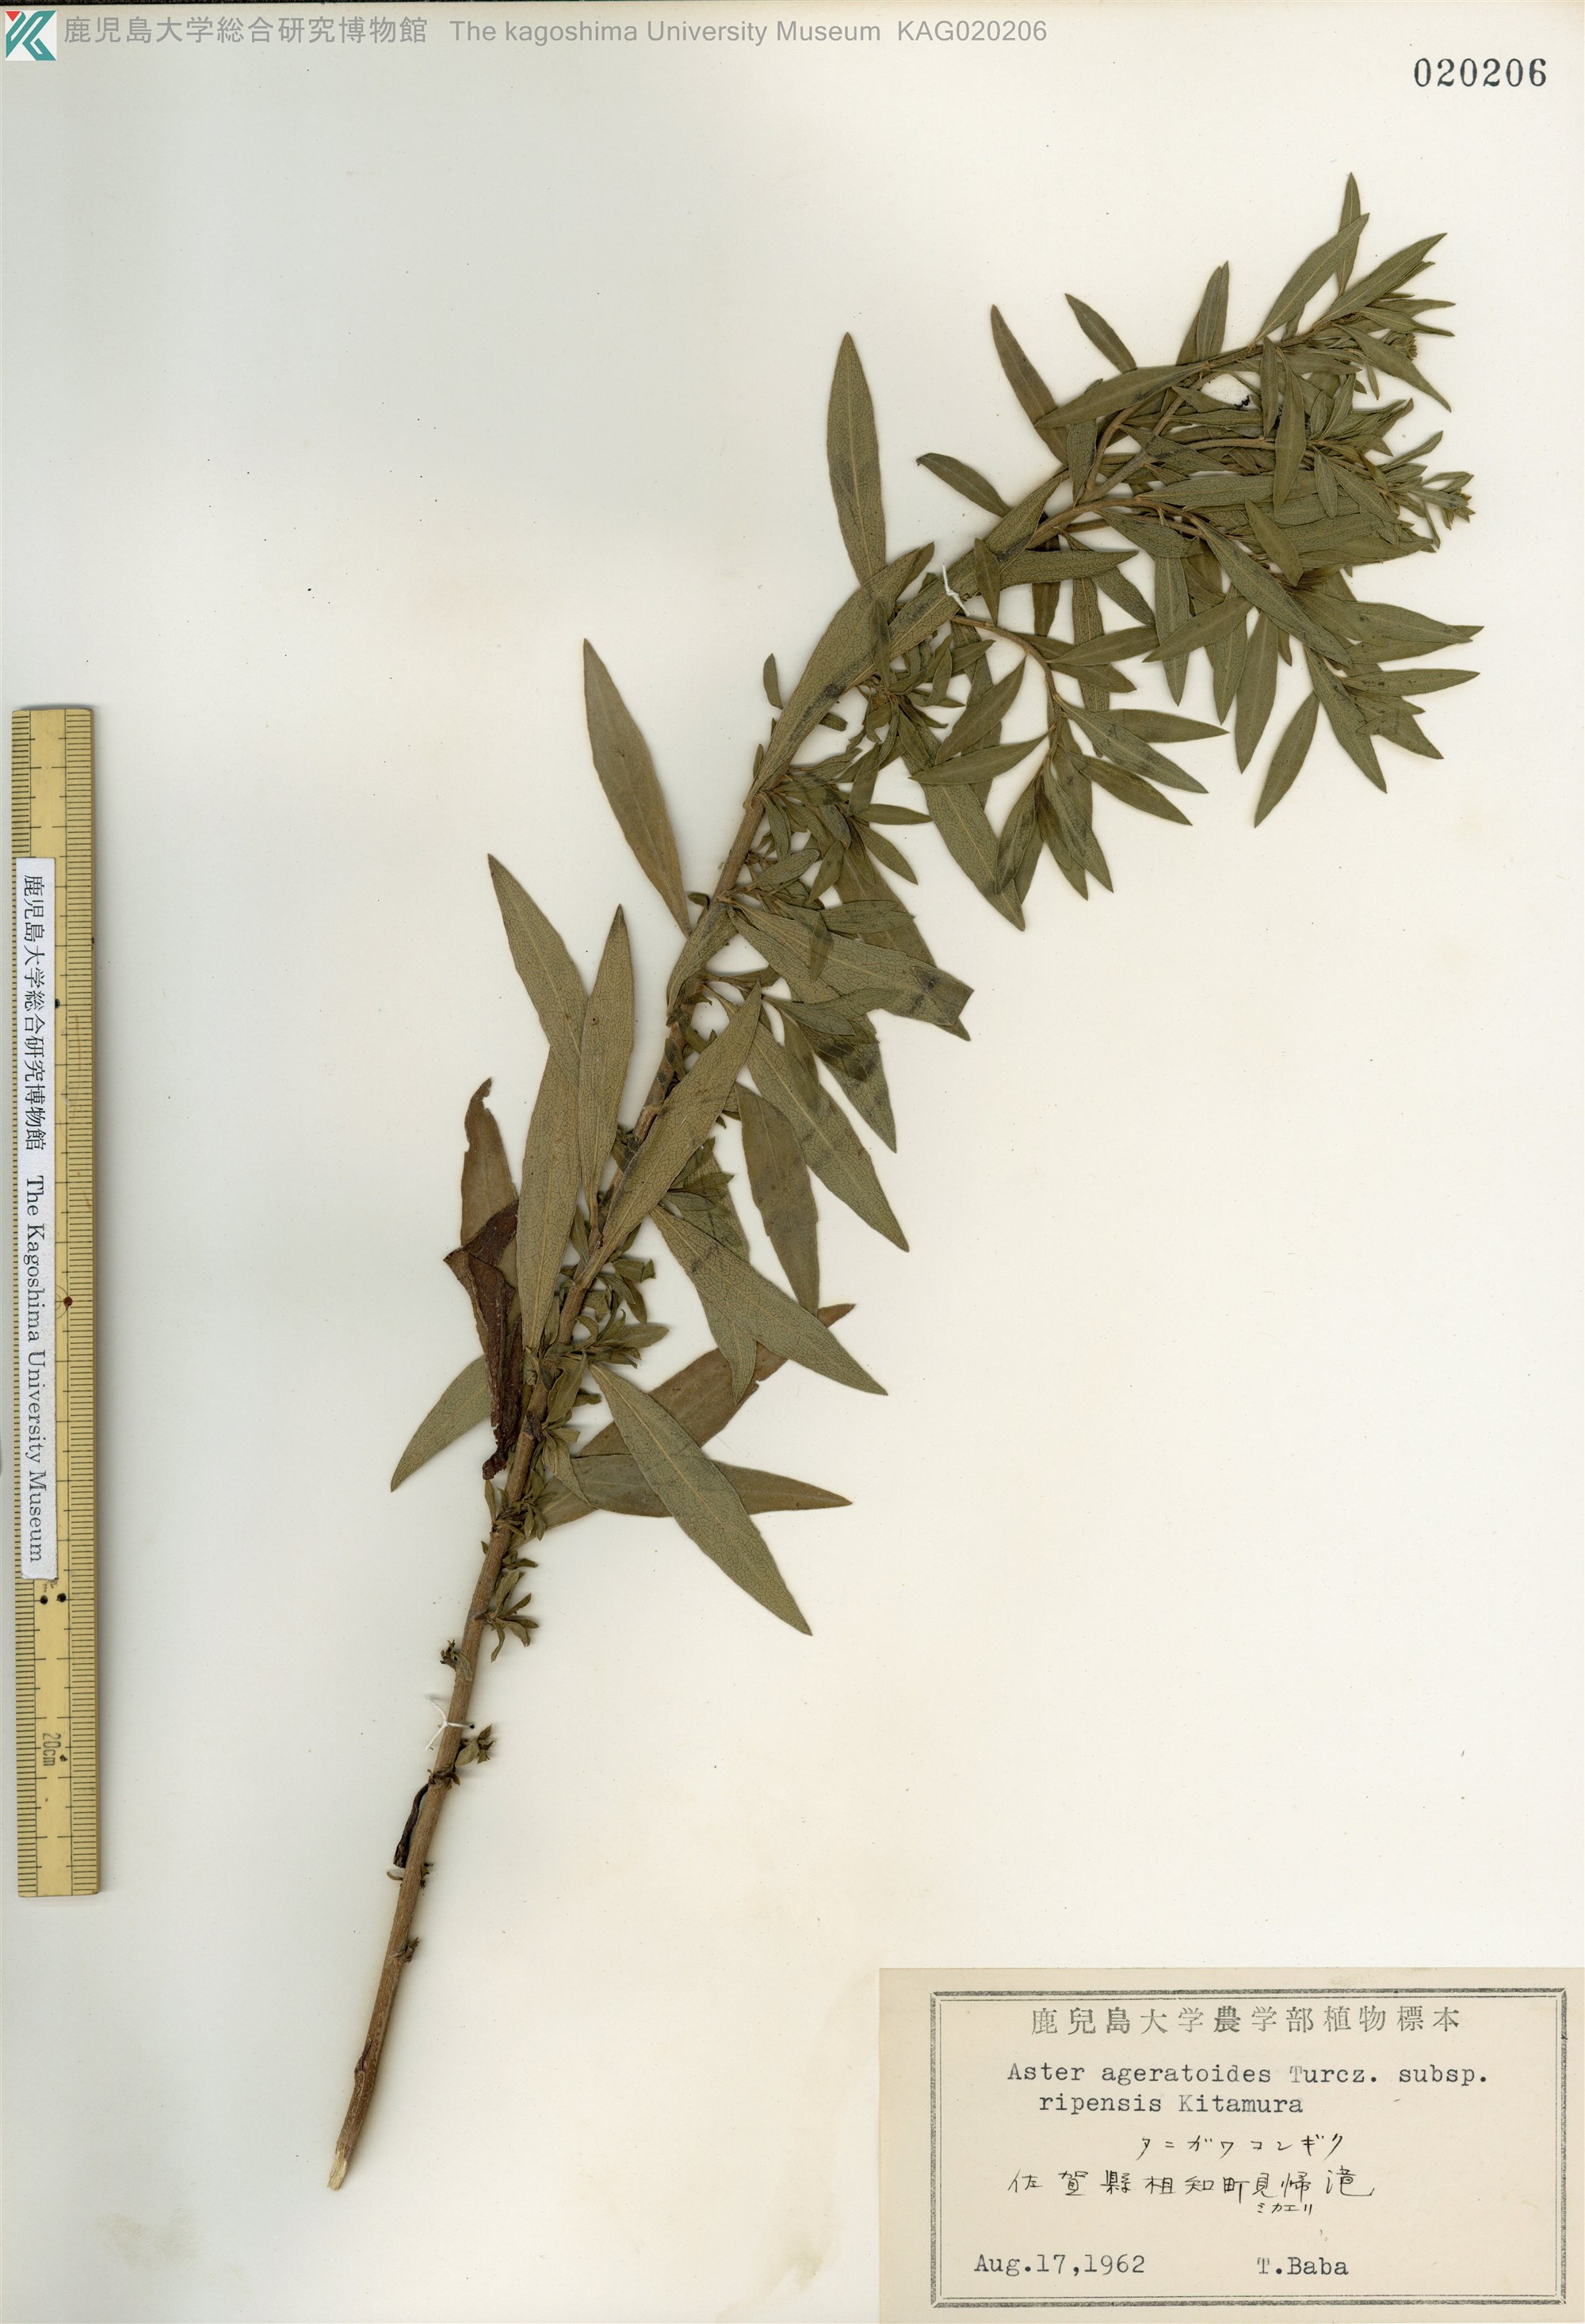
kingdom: Plantae
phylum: Tracheophyta
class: Magnoliopsida
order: Asterales
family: Asteraceae
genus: Aster
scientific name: Aster microcephalus
